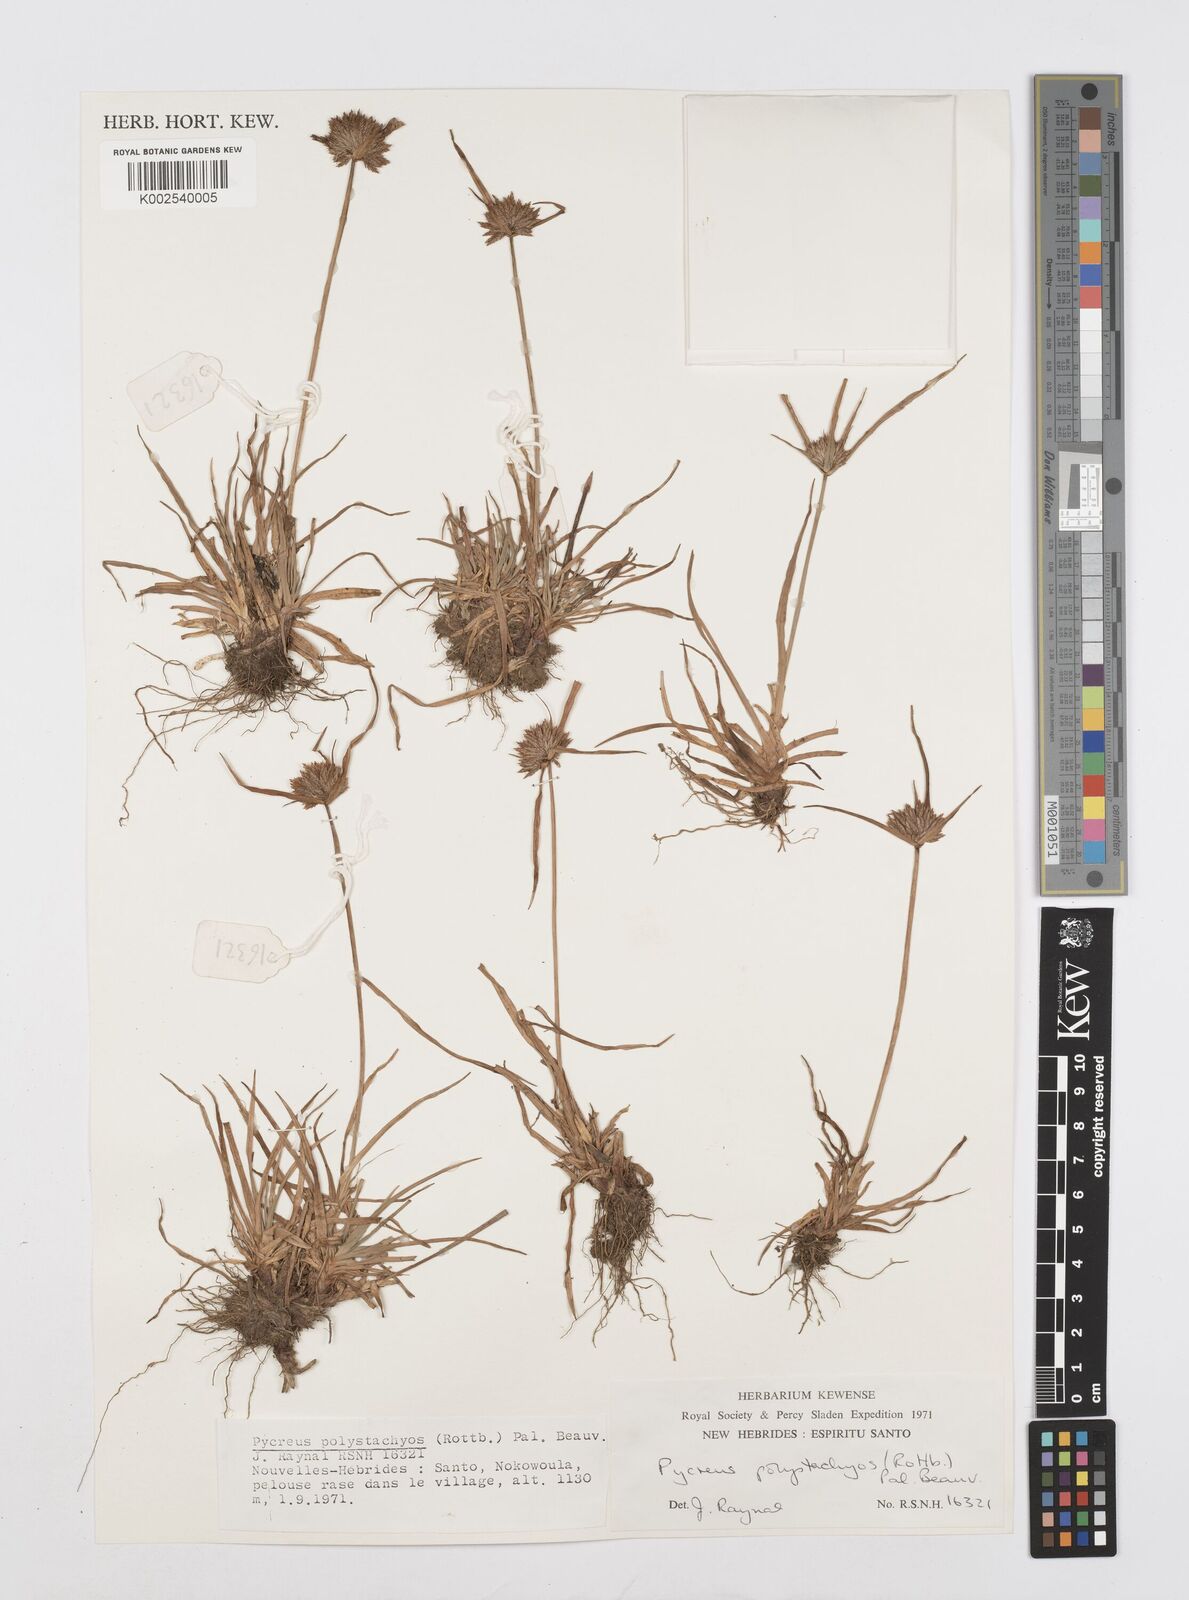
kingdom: Plantae
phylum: Tracheophyta
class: Liliopsida
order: Poales
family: Cyperaceae
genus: Cyperus
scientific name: Cyperus polystachyos
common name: Bunchy flat sedge
